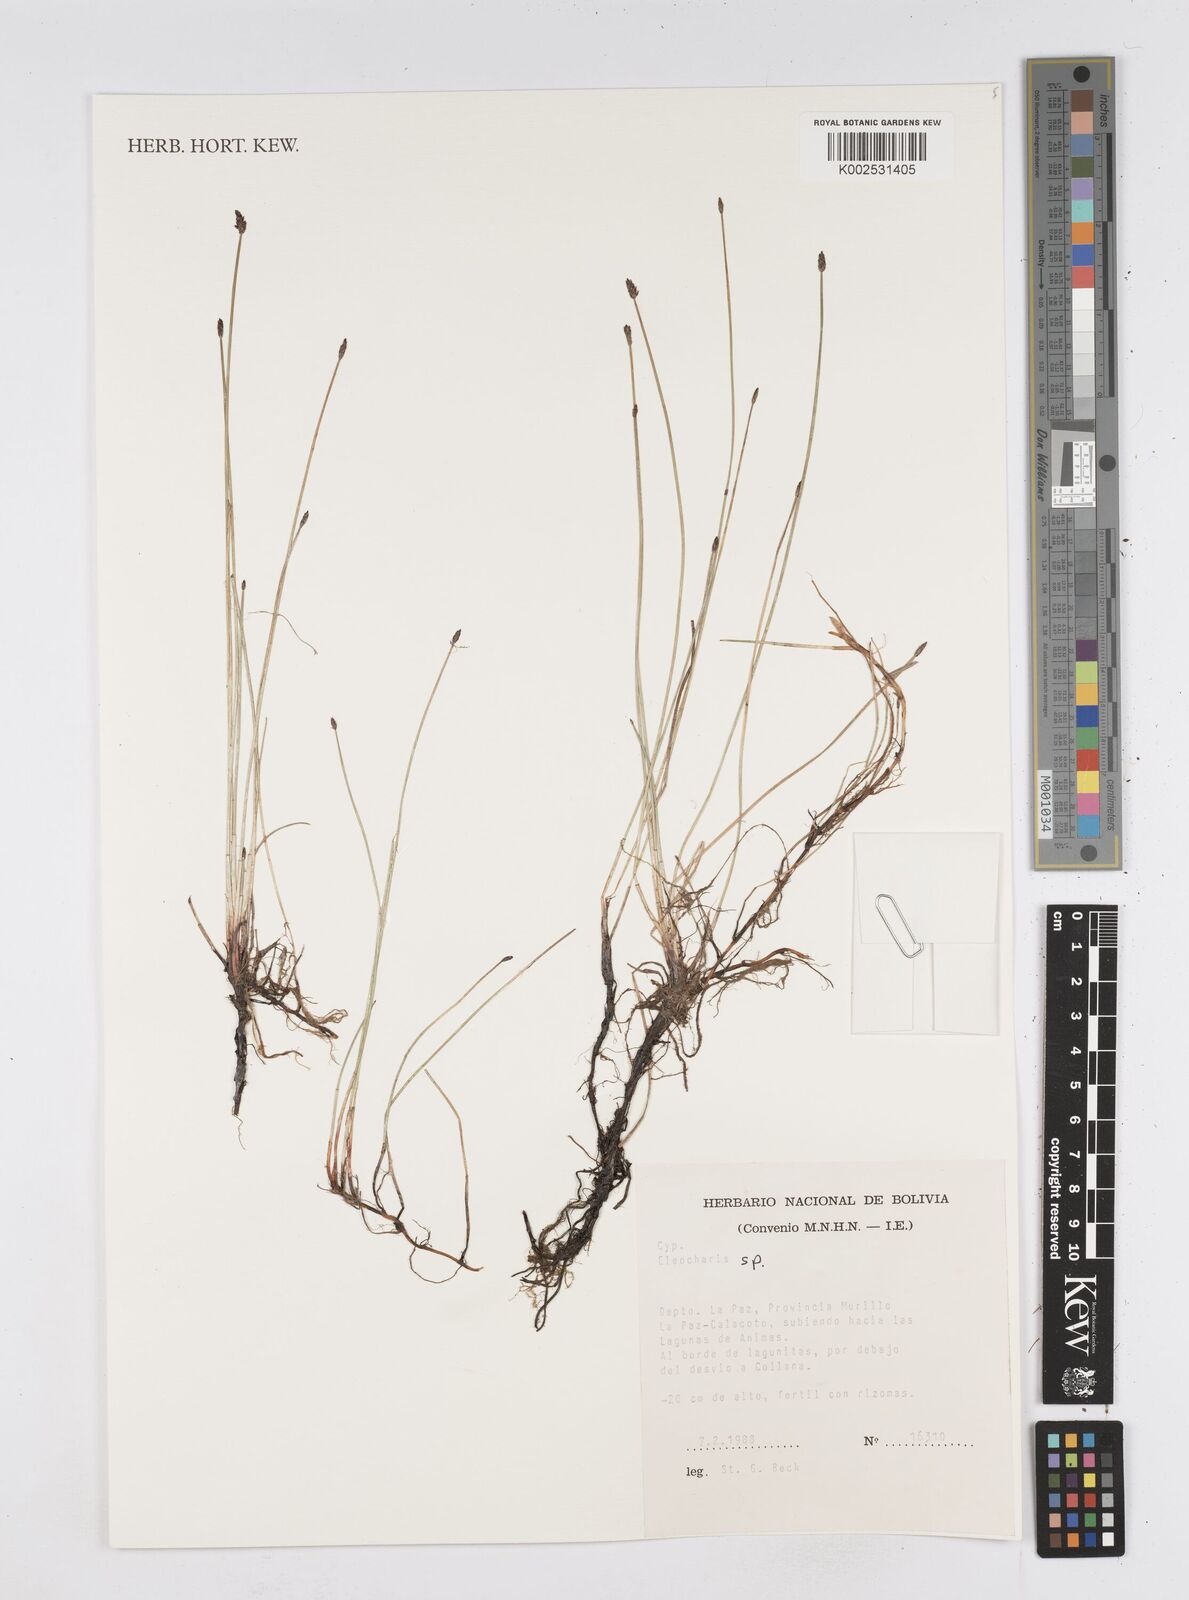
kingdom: Plantae
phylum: Tracheophyta
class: Liliopsida
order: Poales
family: Cyperaceae
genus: Eleocharis
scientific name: Eleocharis
